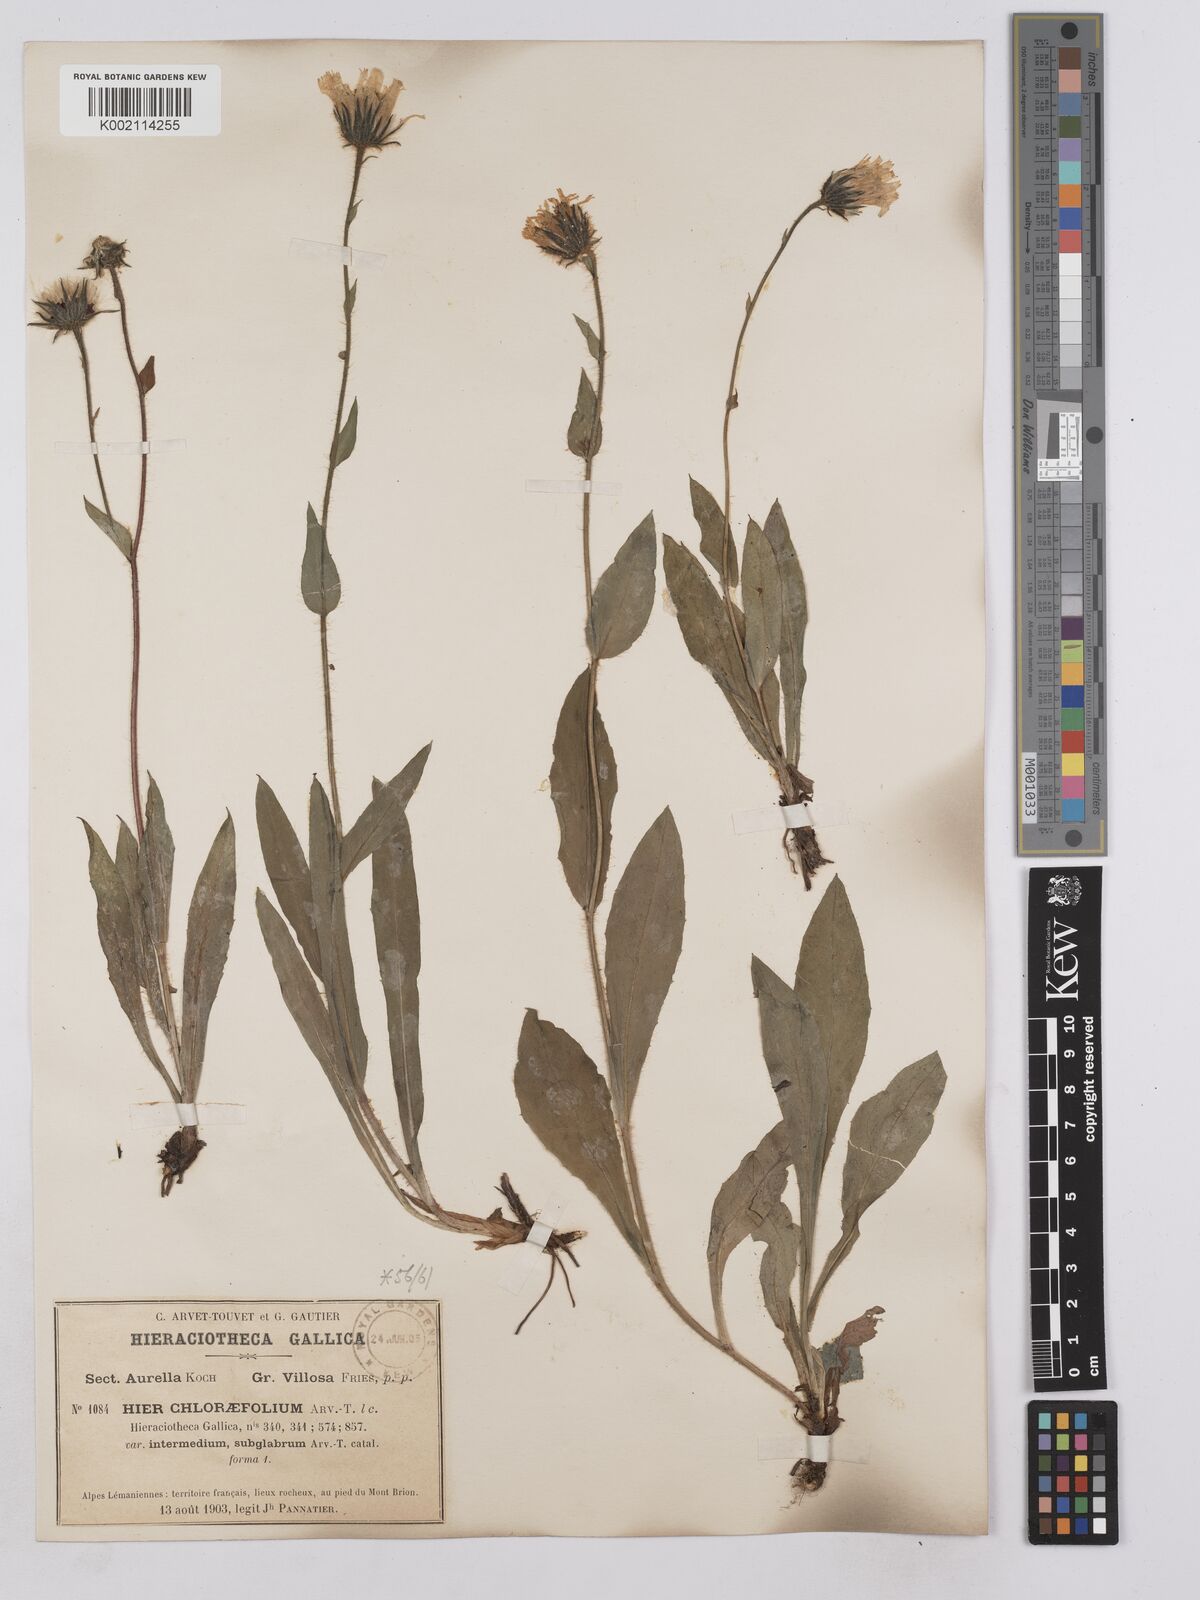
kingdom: Plantae
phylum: Tracheophyta
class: Magnoliopsida
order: Asterales
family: Asteraceae
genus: Hieracium
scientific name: Hieracium chlorifolium
